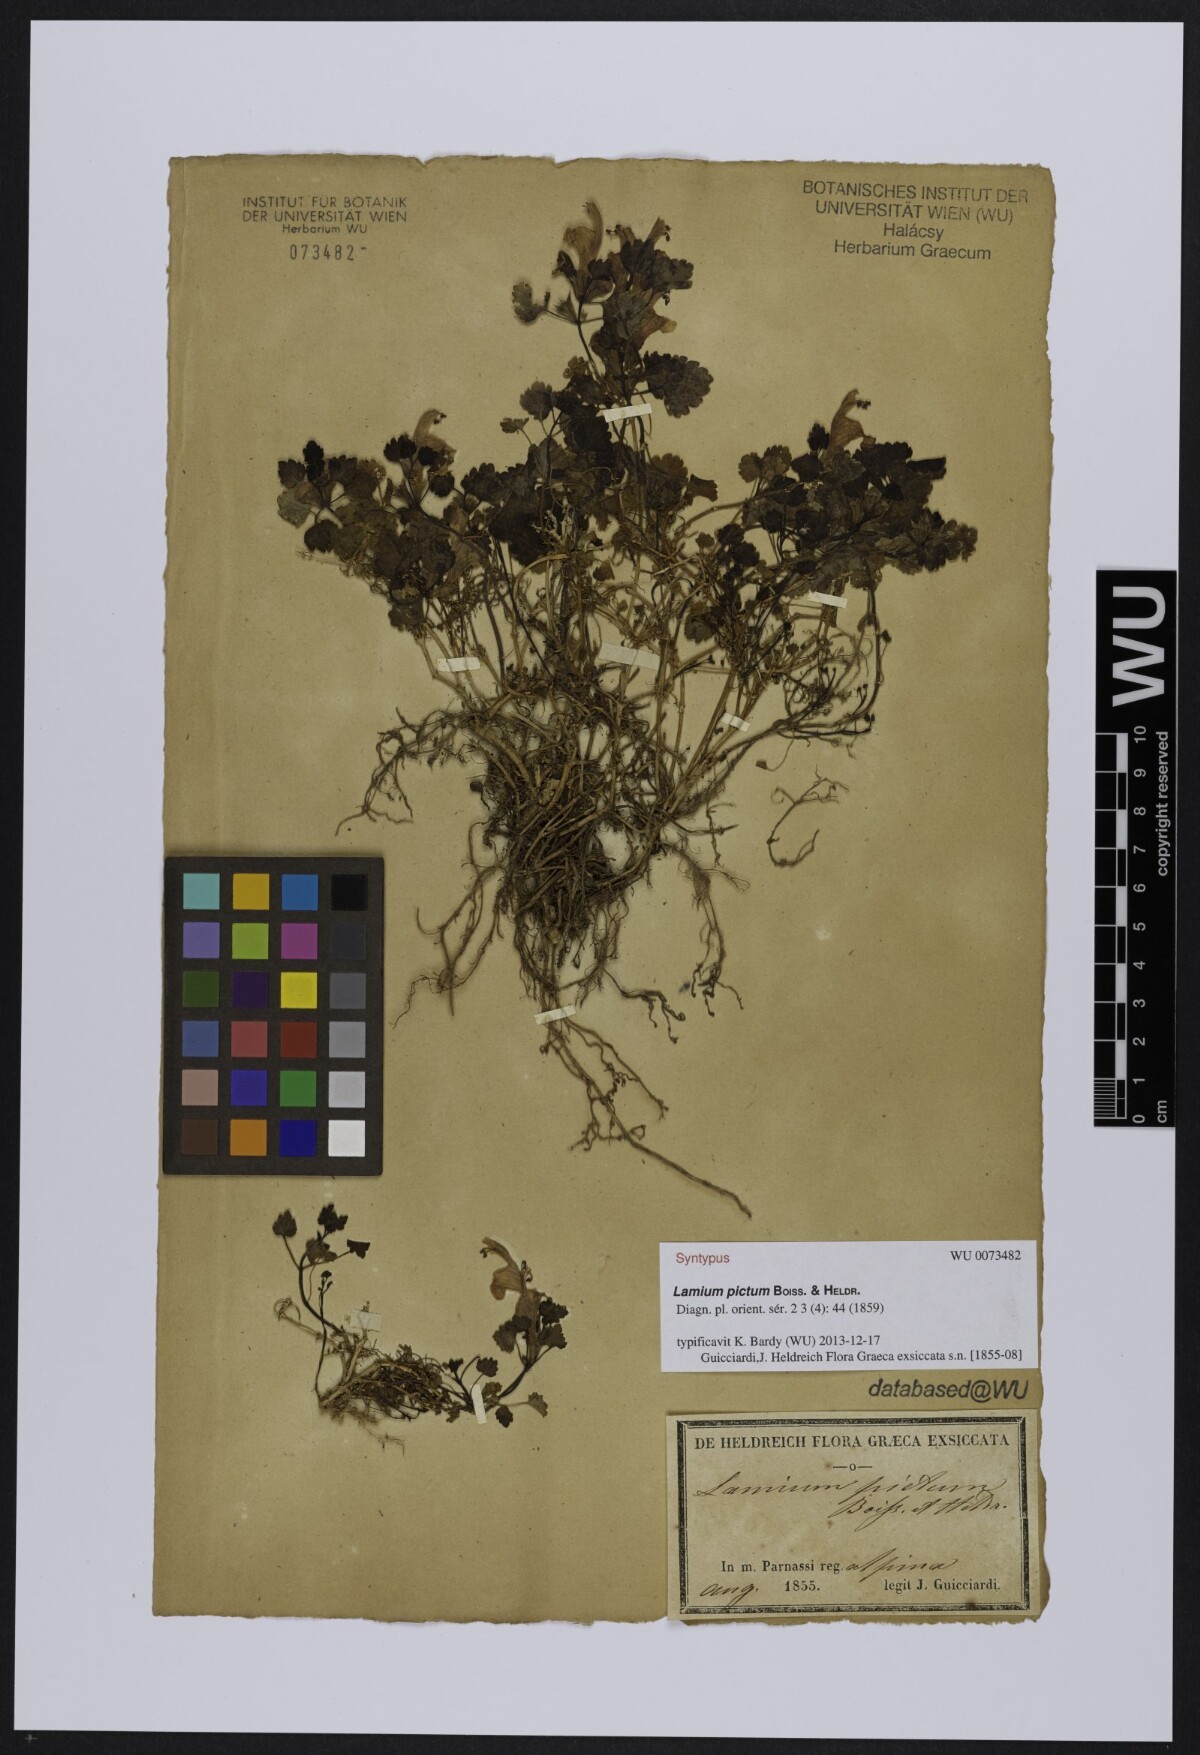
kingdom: Plantae
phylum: Tracheophyta
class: Magnoliopsida
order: Lamiales
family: Lamiaceae
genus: Lamium
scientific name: Lamium garganicum
